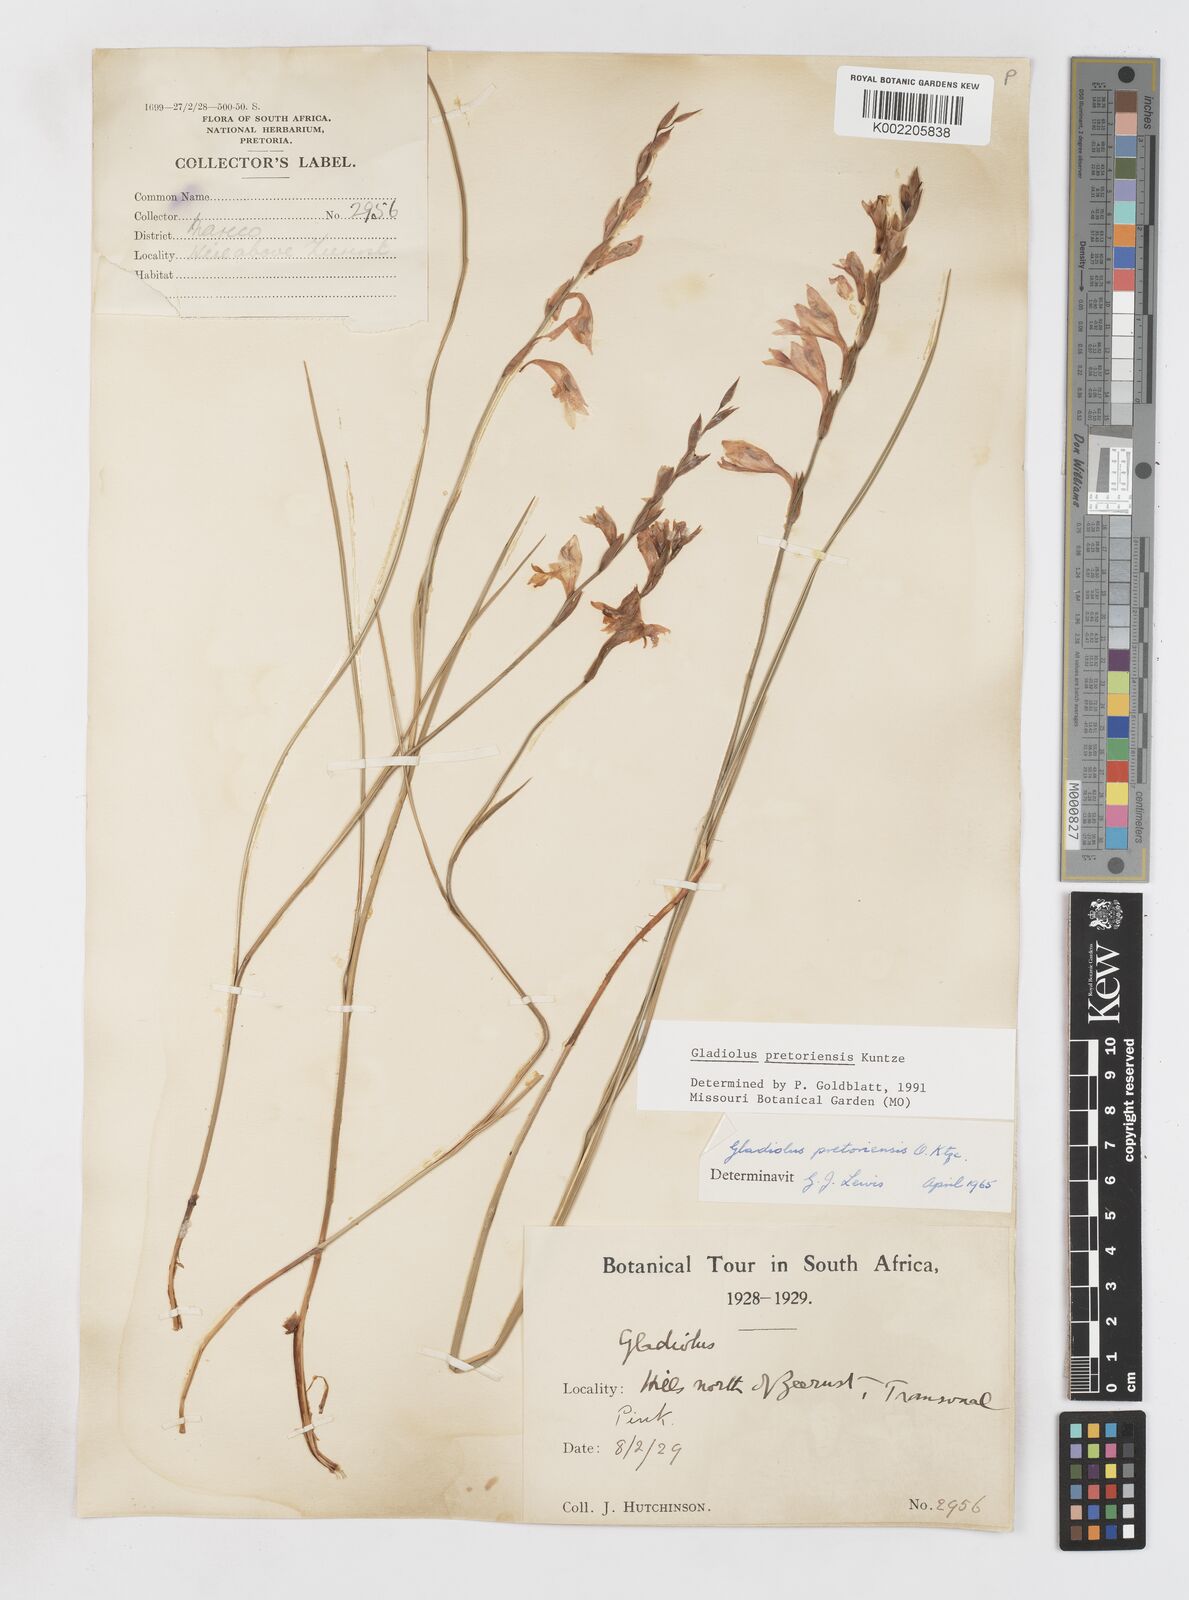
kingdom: Plantae
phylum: Tracheophyta
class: Liliopsida
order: Asparagales
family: Iridaceae
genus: Gladiolus
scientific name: Gladiolus pretoriensis
